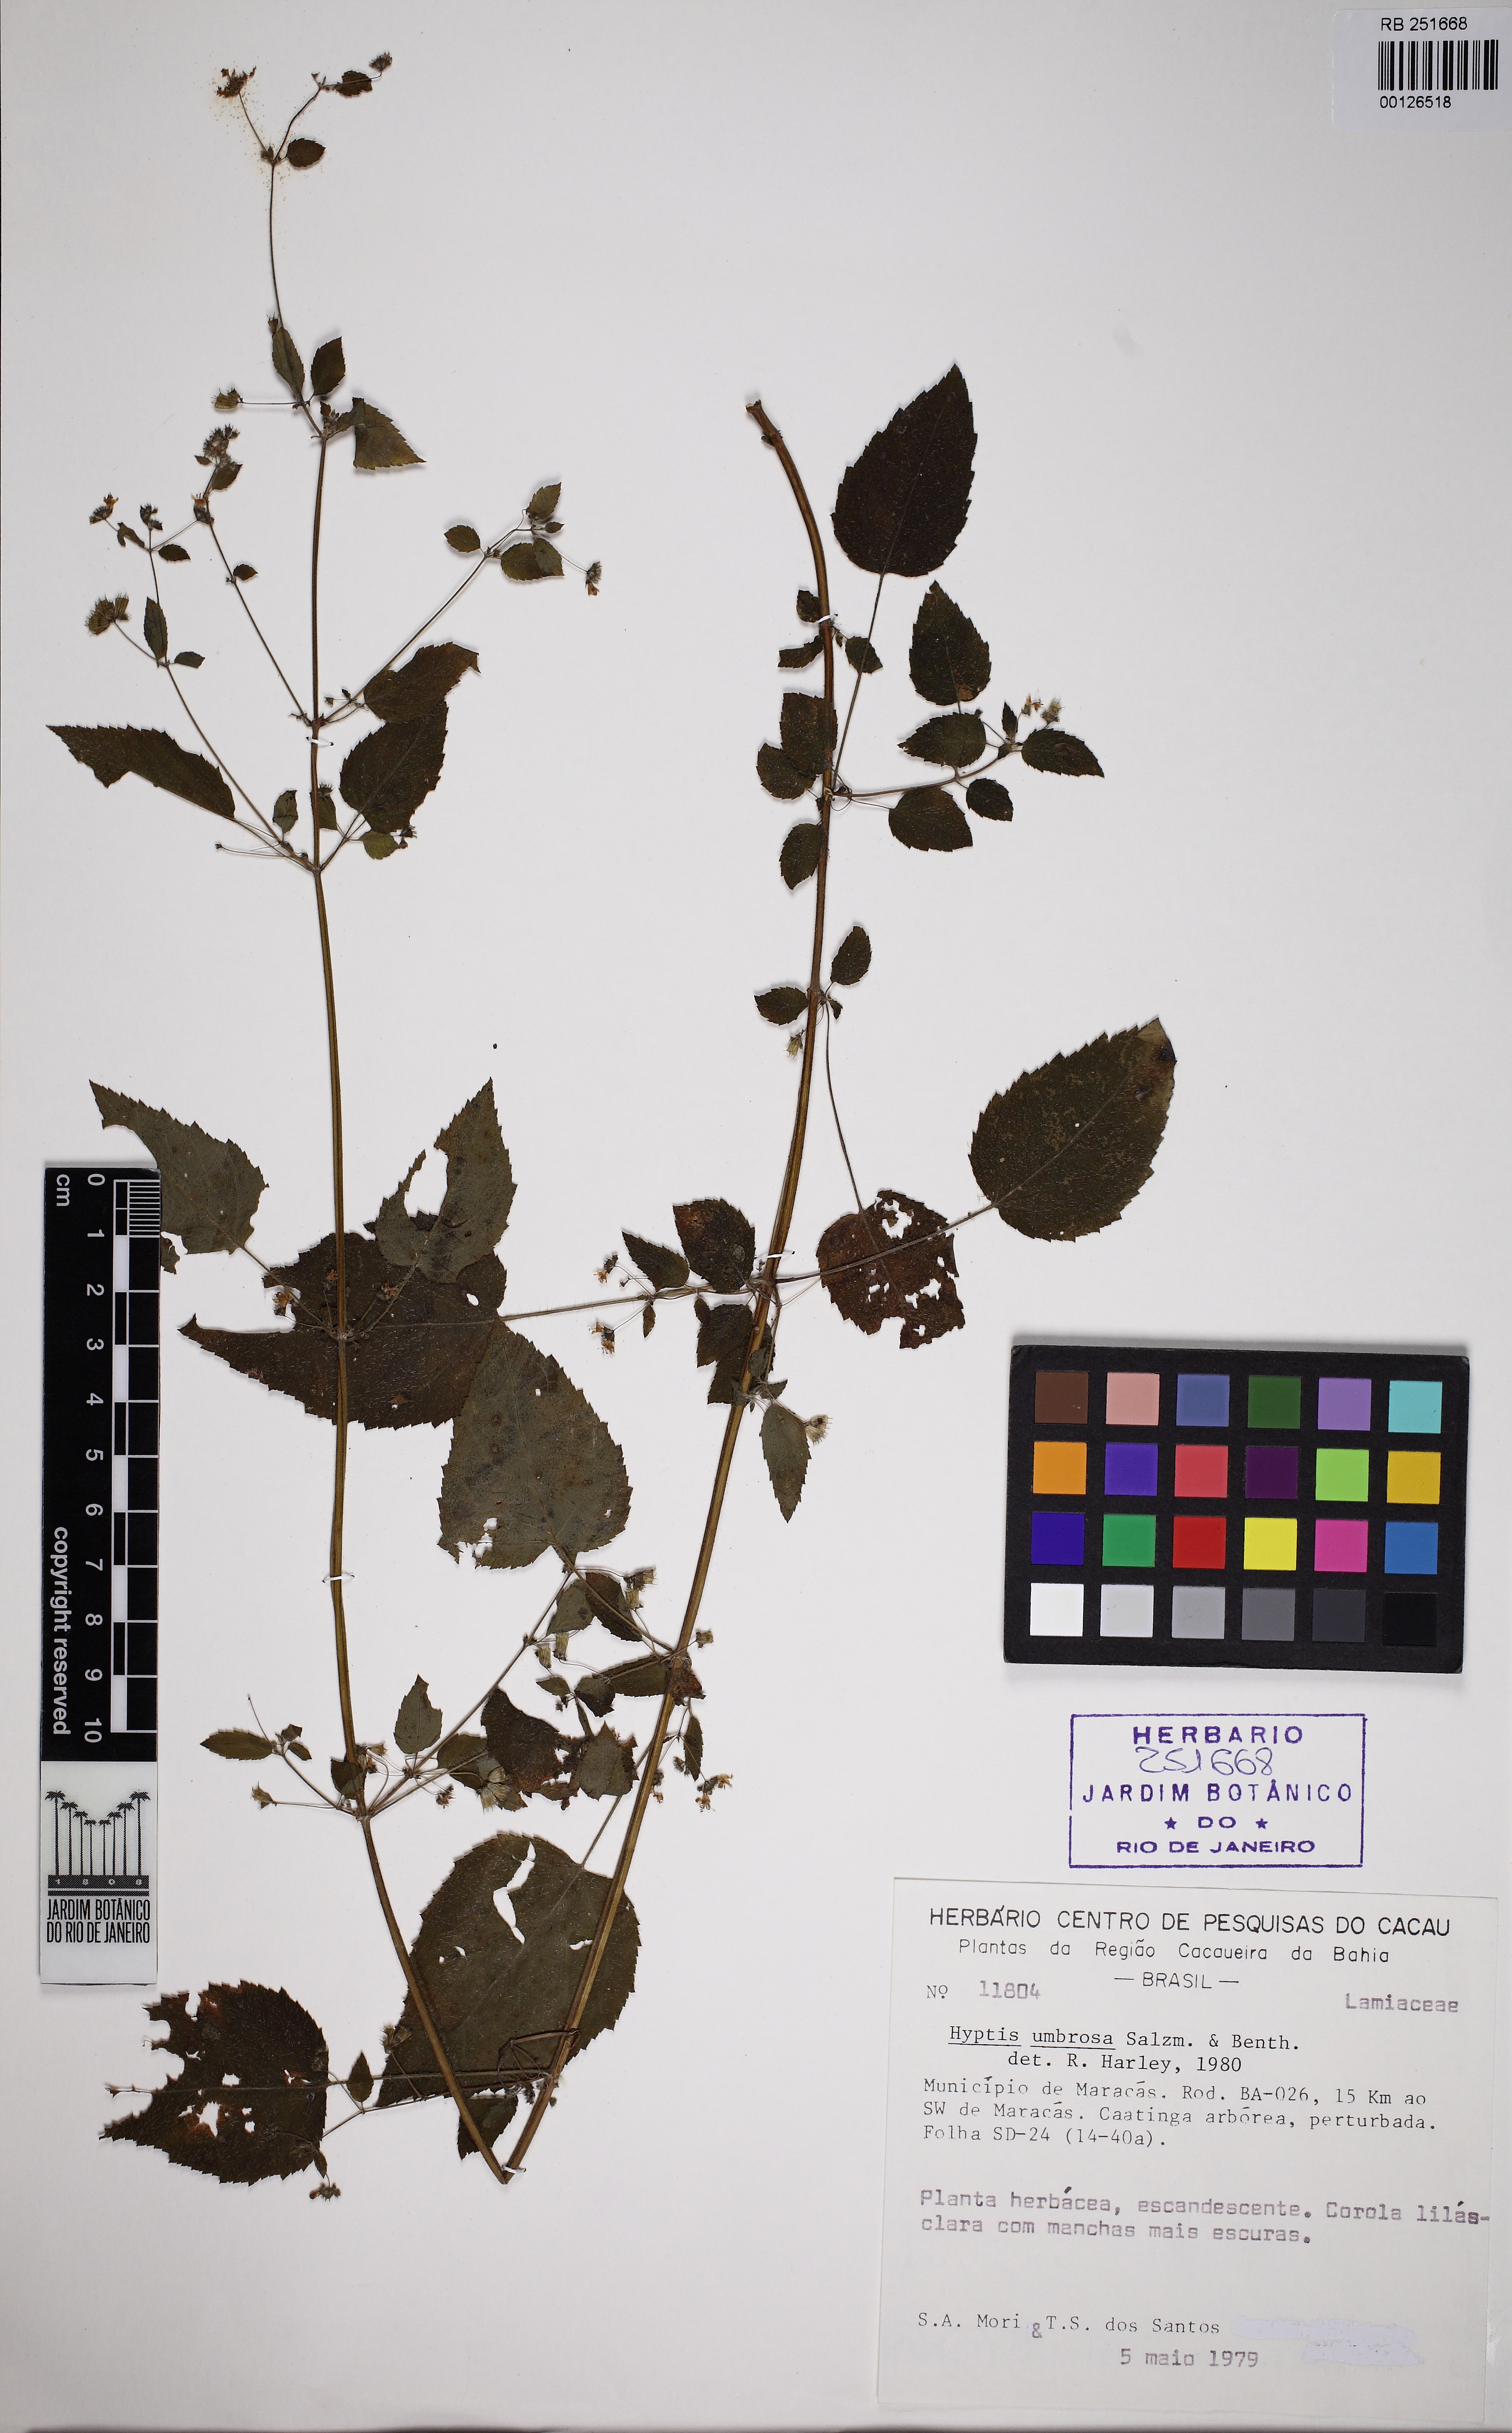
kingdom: Plantae
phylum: Tracheophyta
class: Magnoliopsida
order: Lamiales
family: Lamiaceae
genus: Mesosphaerum
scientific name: Mesosphaerum sidifolium
